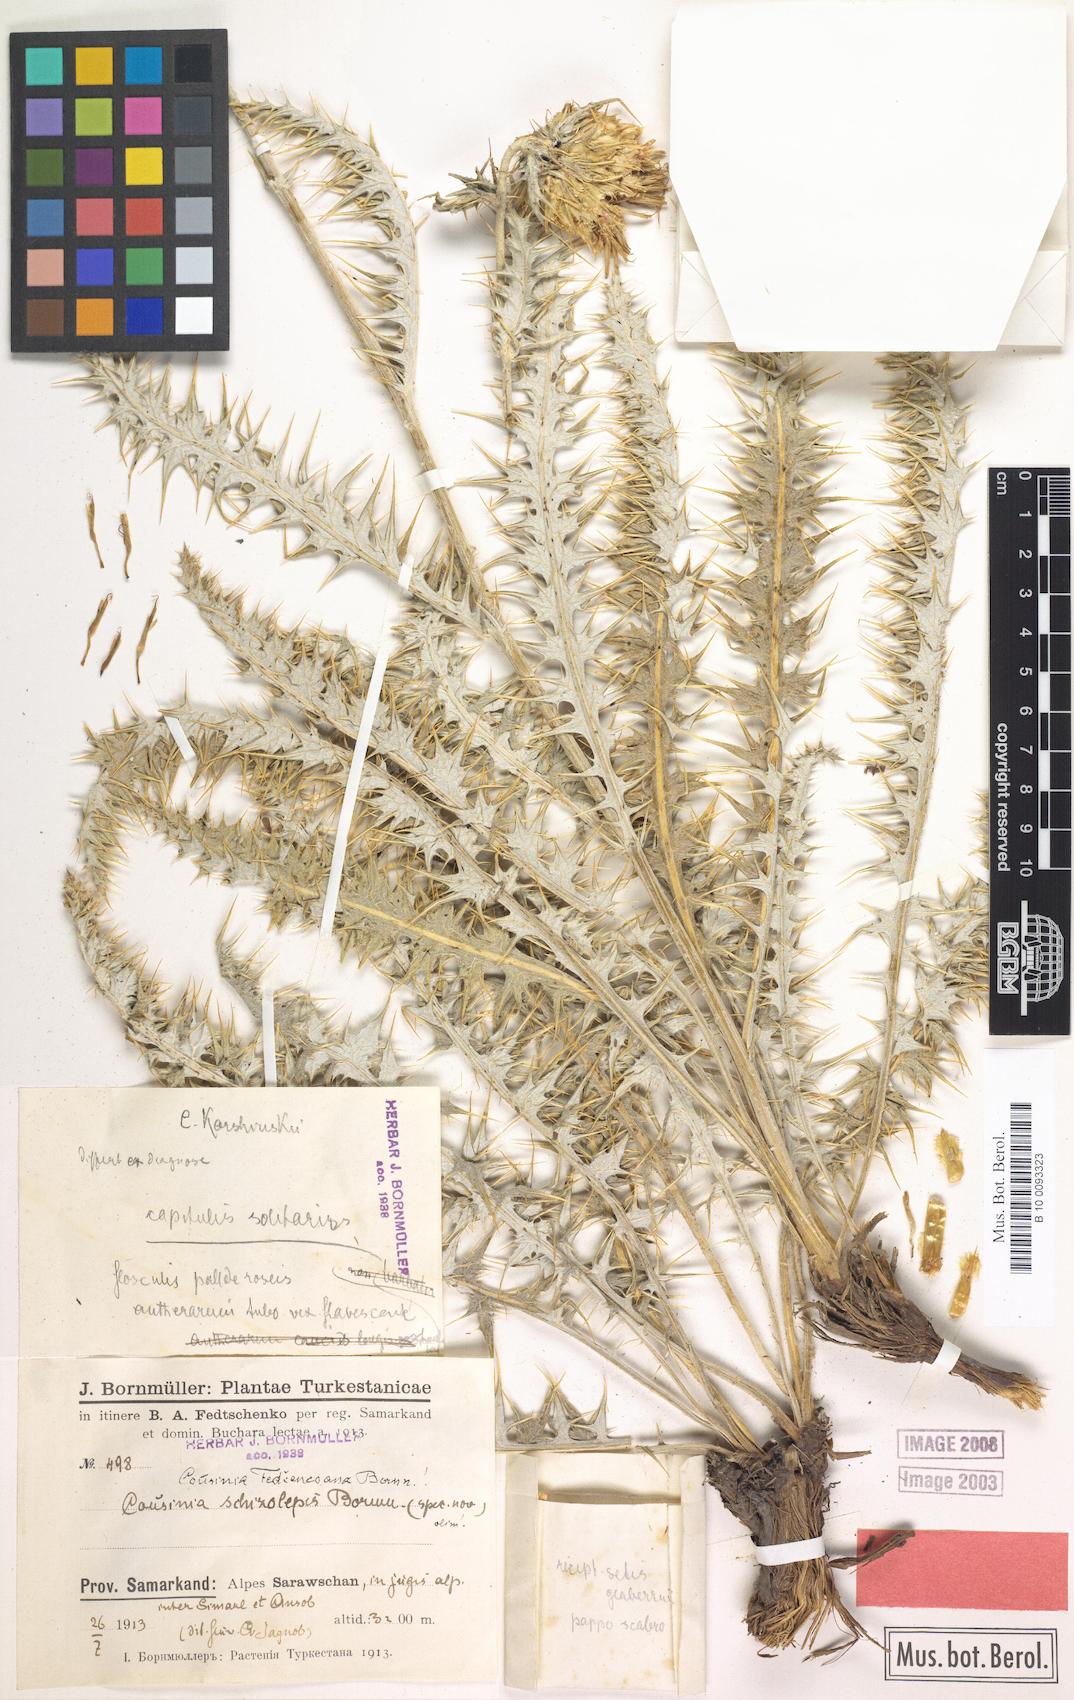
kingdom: Plantae
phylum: Tracheophyta
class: Magnoliopsida
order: Asterales
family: Asteraceae
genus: Arctium
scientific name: Arctium fedtschenkoanum
